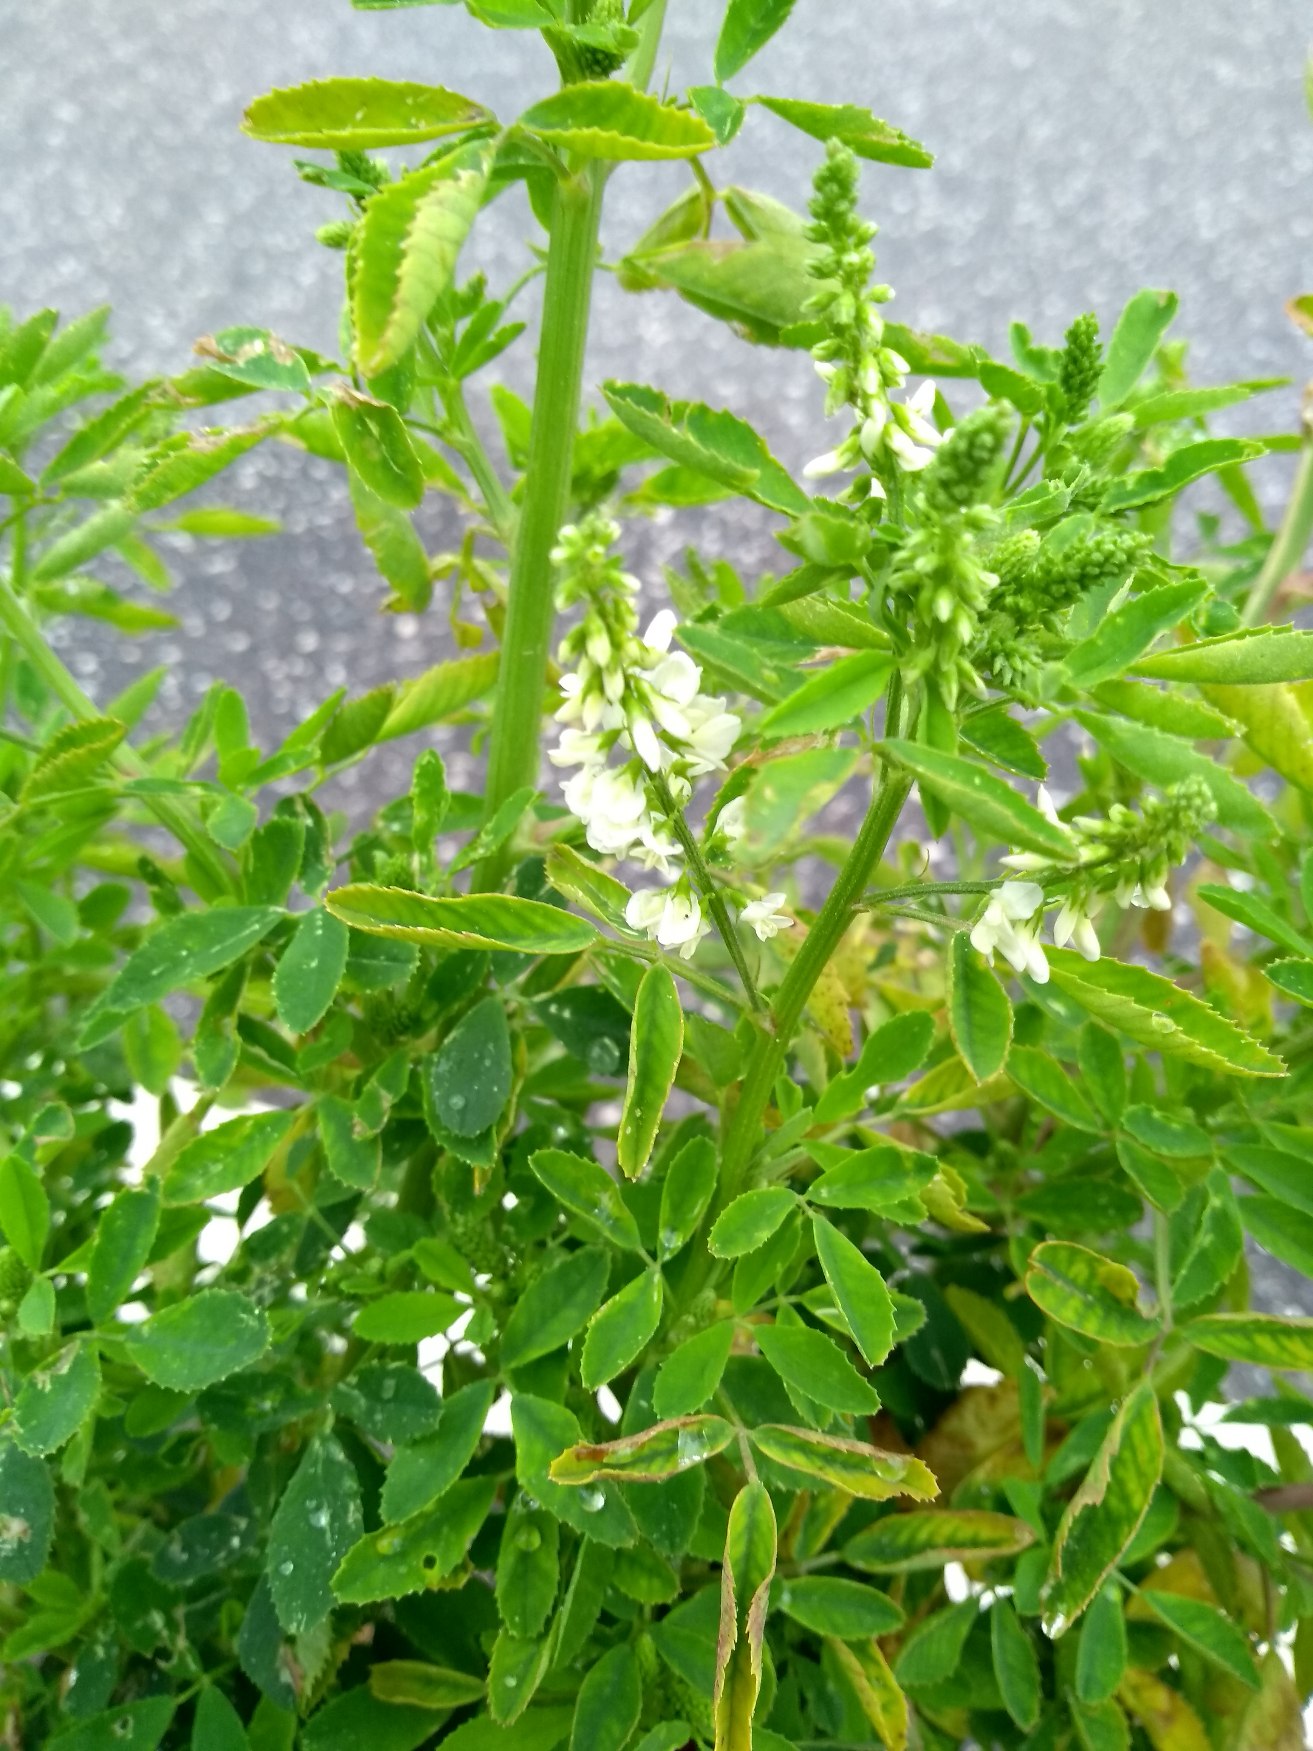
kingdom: Plantae
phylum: Tracheophyta
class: Magnoliopsida
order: Fabales
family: Fabaceae
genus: Melilotus
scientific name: Melilotus albus
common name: Hvid stenkløver
